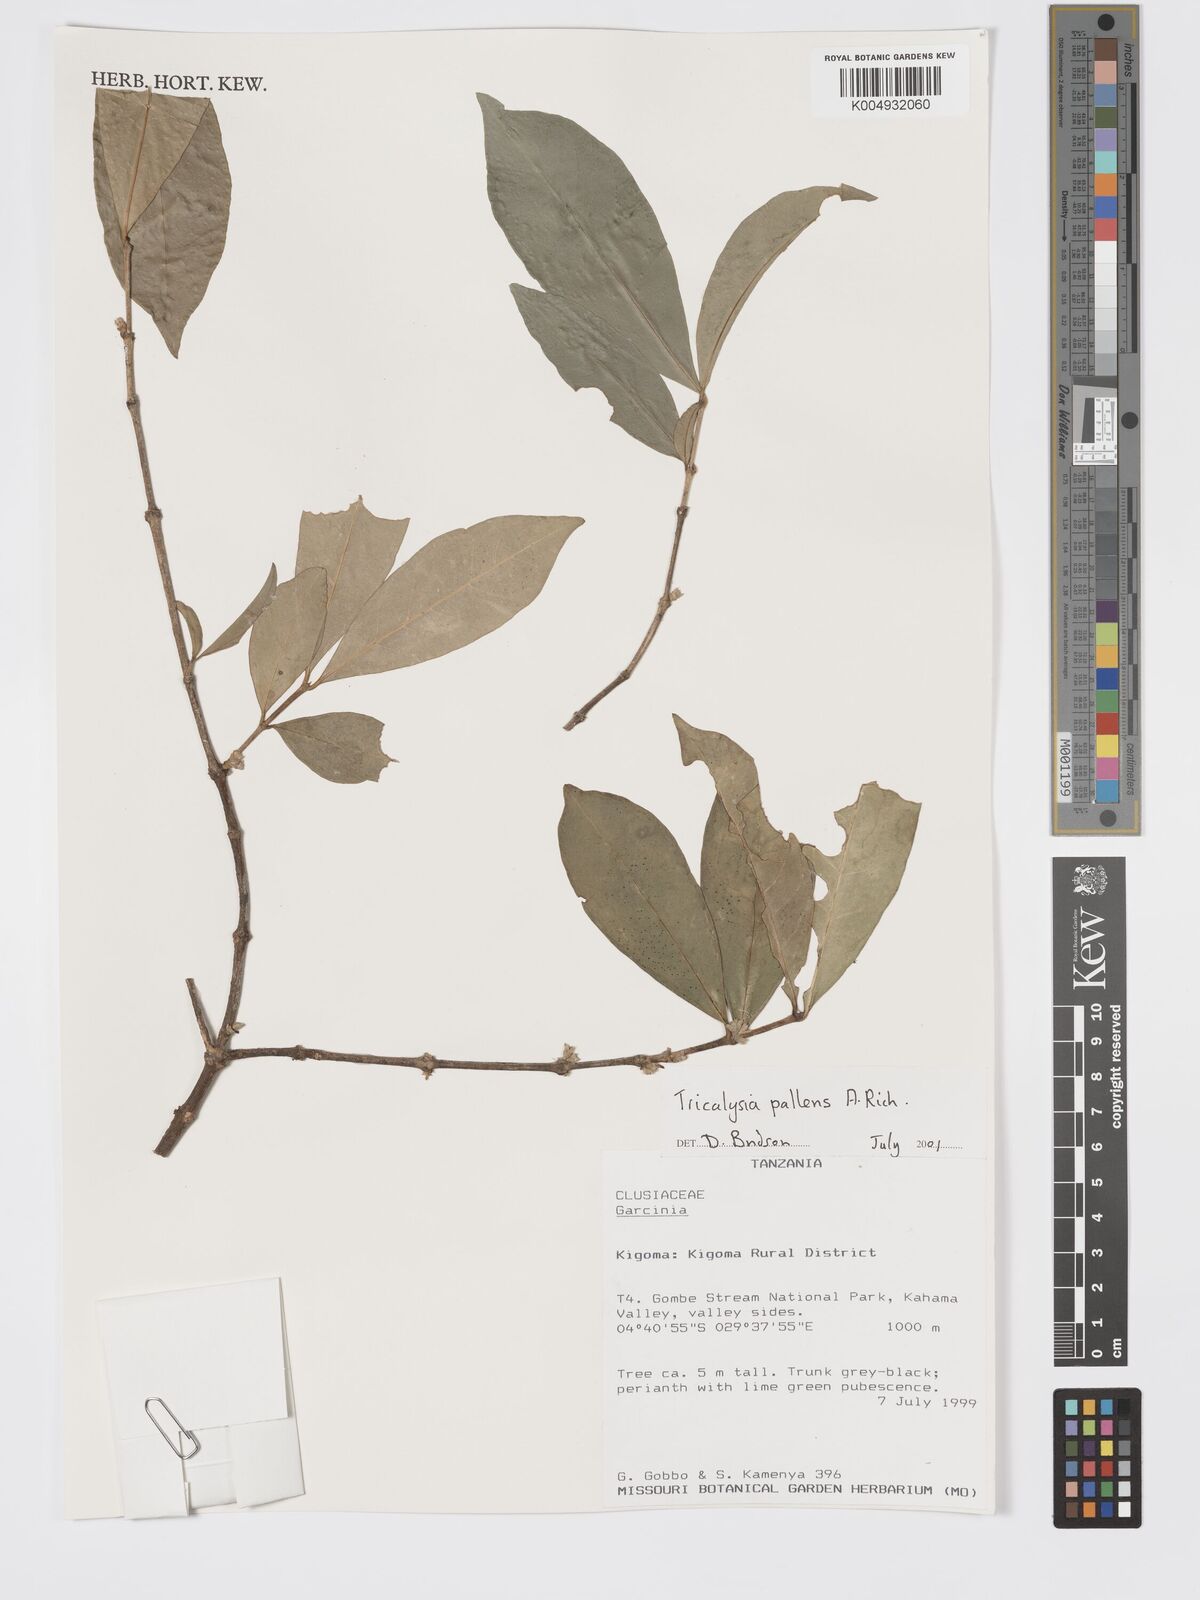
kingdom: Plantae
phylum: Tracheophyta
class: Magnoliopsida
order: Gentianales
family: Rubiaceae
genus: Tricalysia
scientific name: Tricalysia pallens
